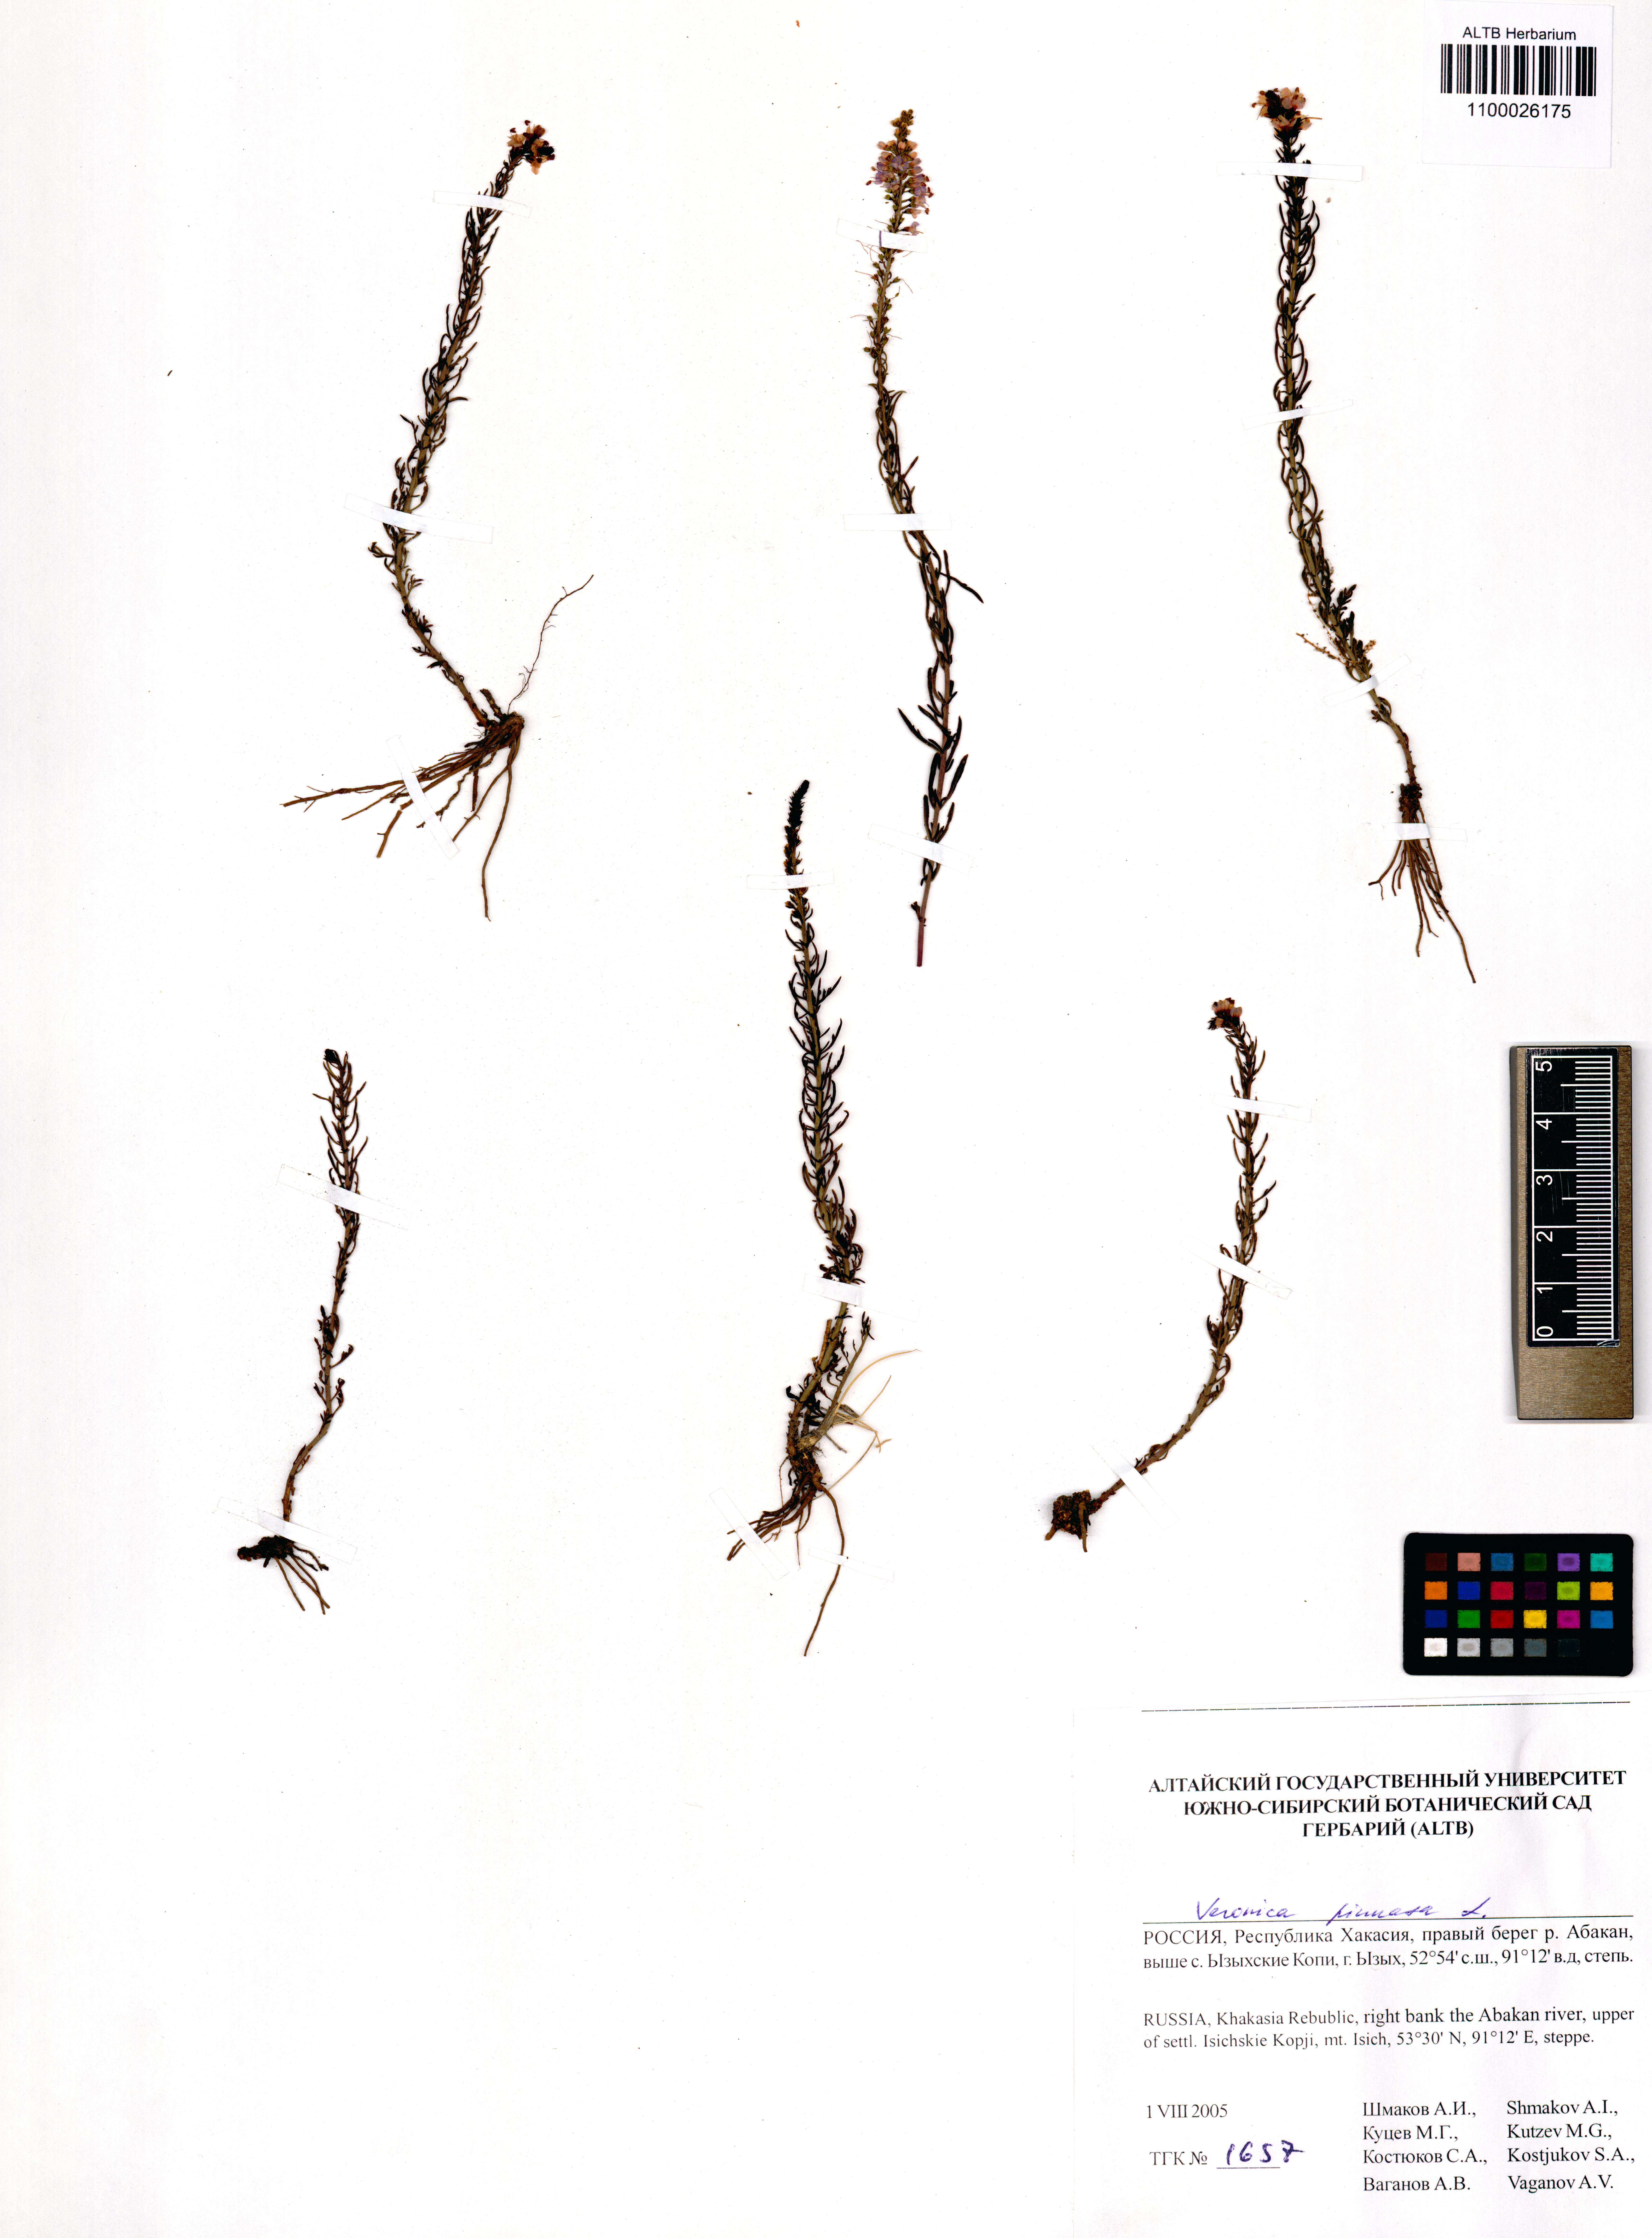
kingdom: Plantae
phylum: Tracheophyta
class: Magnoliopsida
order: Lamiales
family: Plantaginaceae
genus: Veronica
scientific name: Veronica pinnata
